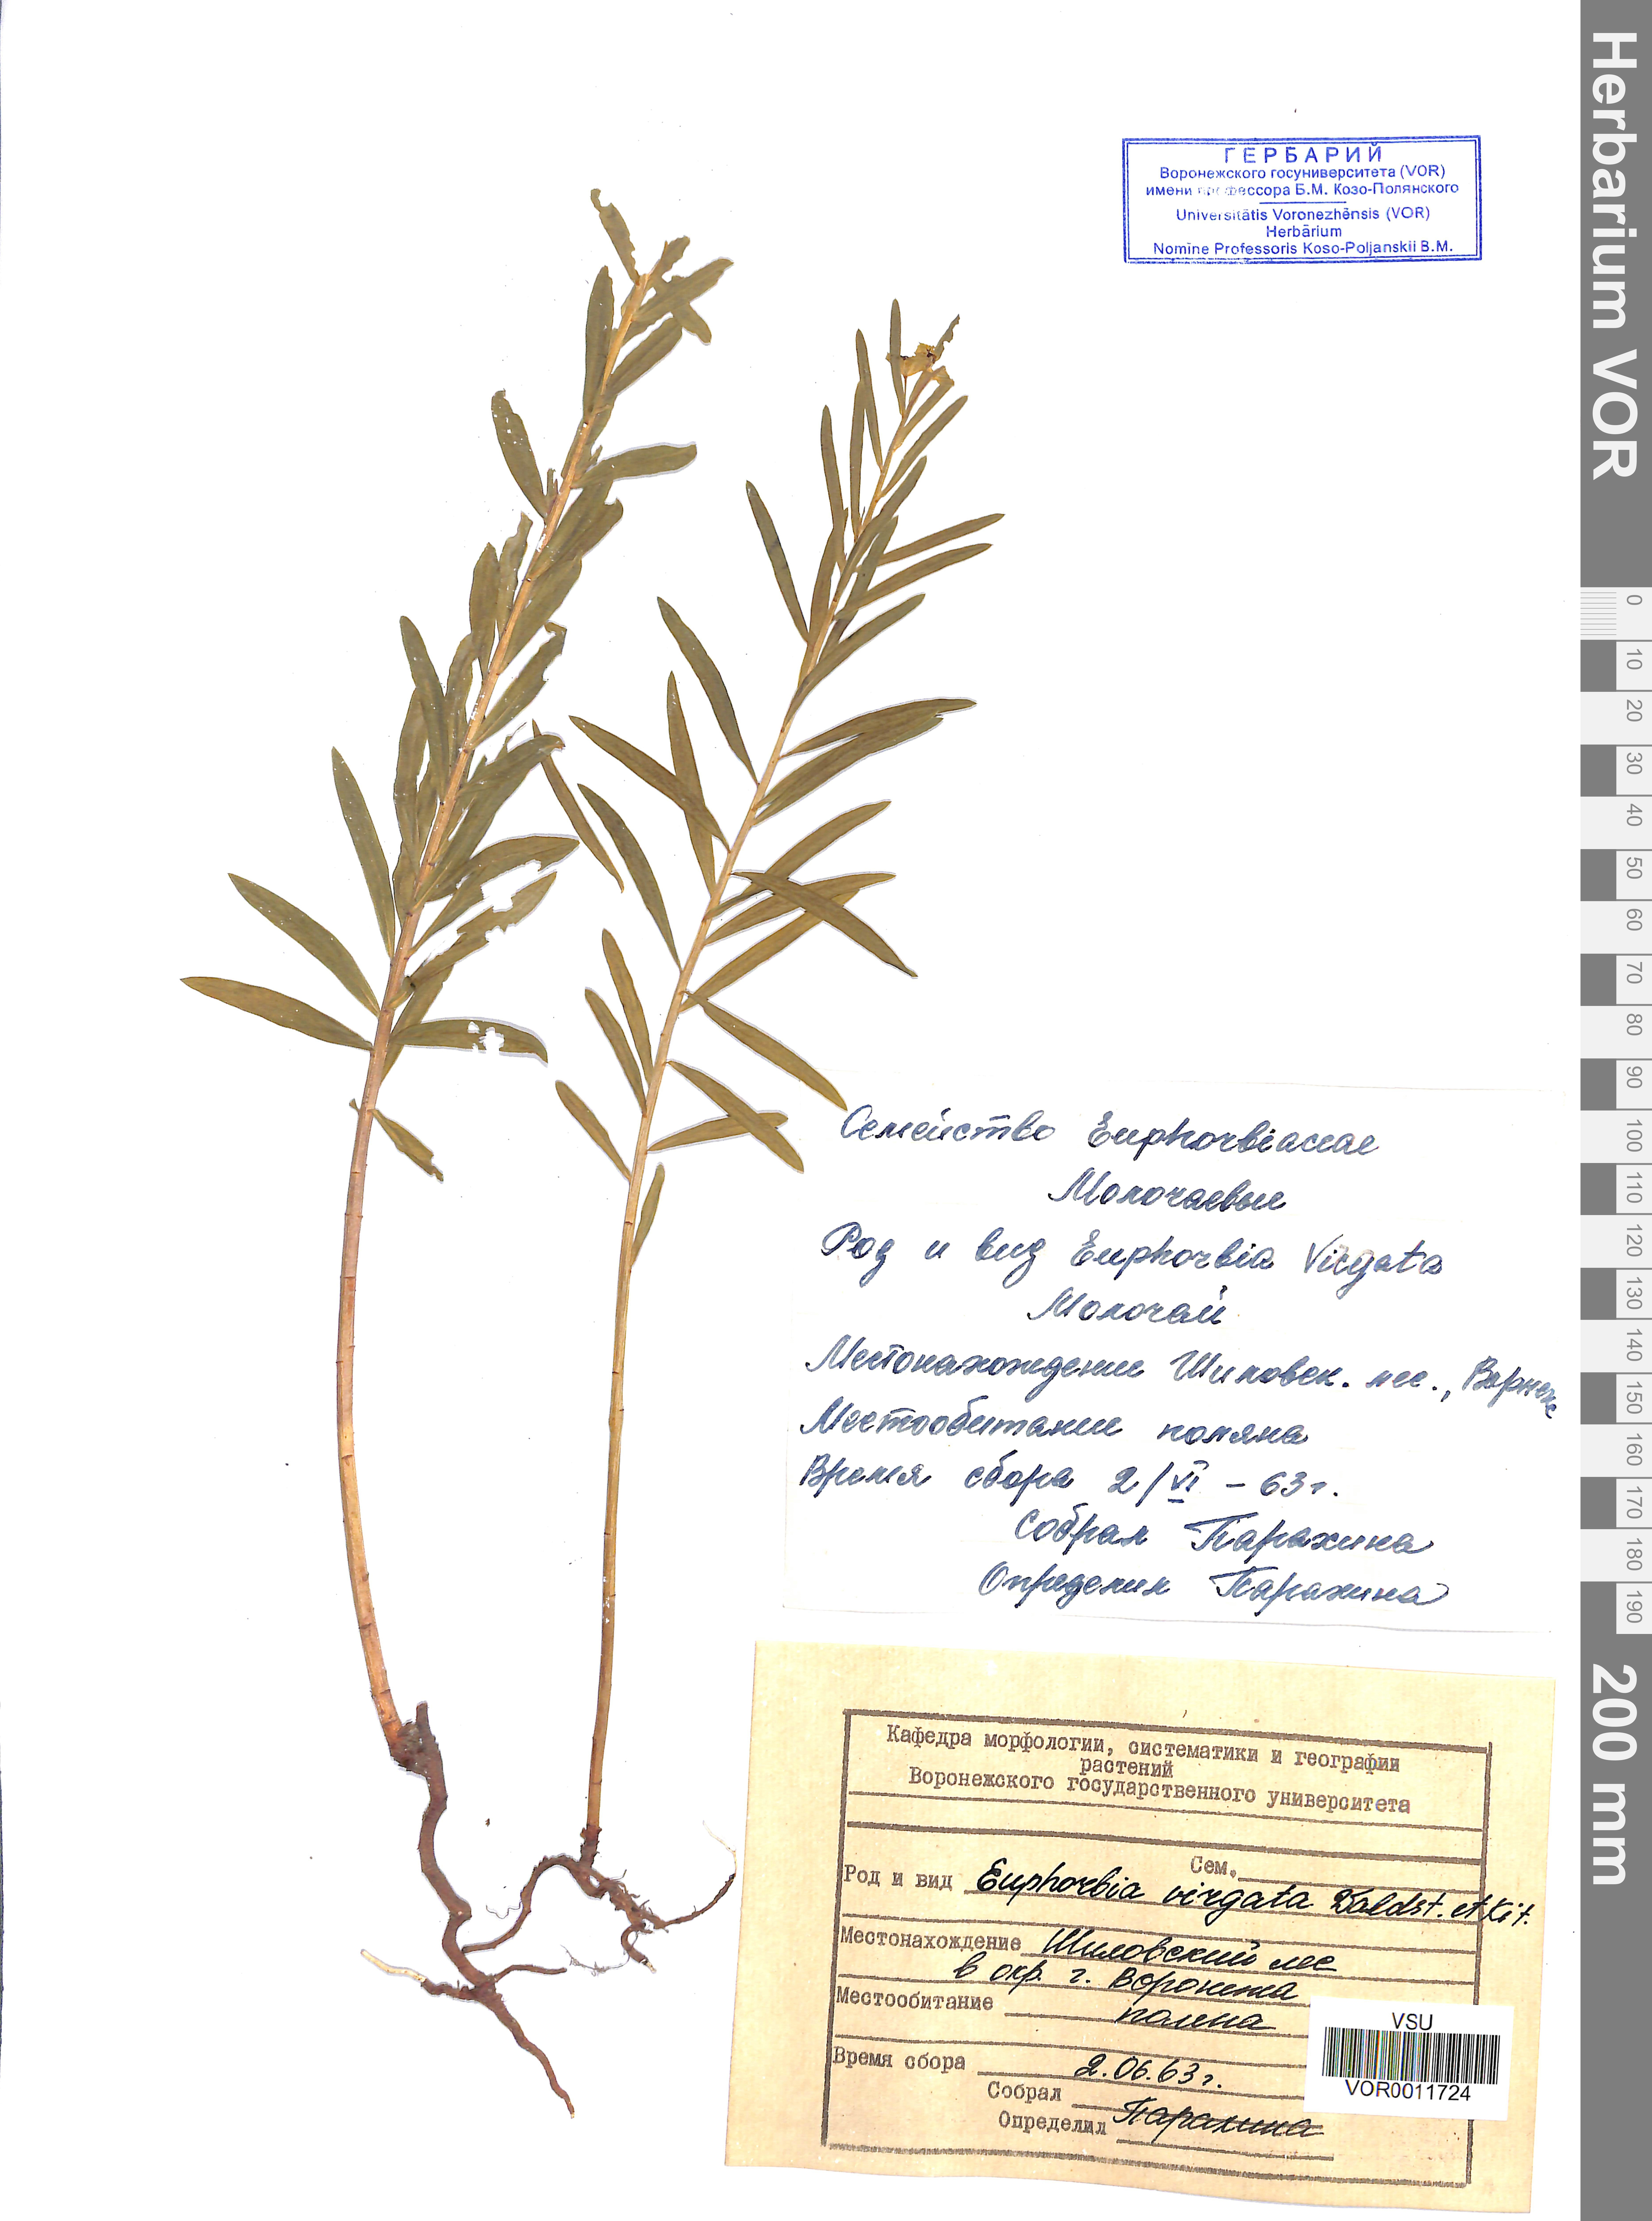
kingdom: Plantae
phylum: Tracheophyta
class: Magnoliopsida
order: Malpighiales
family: Euphorbiaceae
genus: Euphorbia
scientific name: Euphorbia virgata
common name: Leafy spurge
